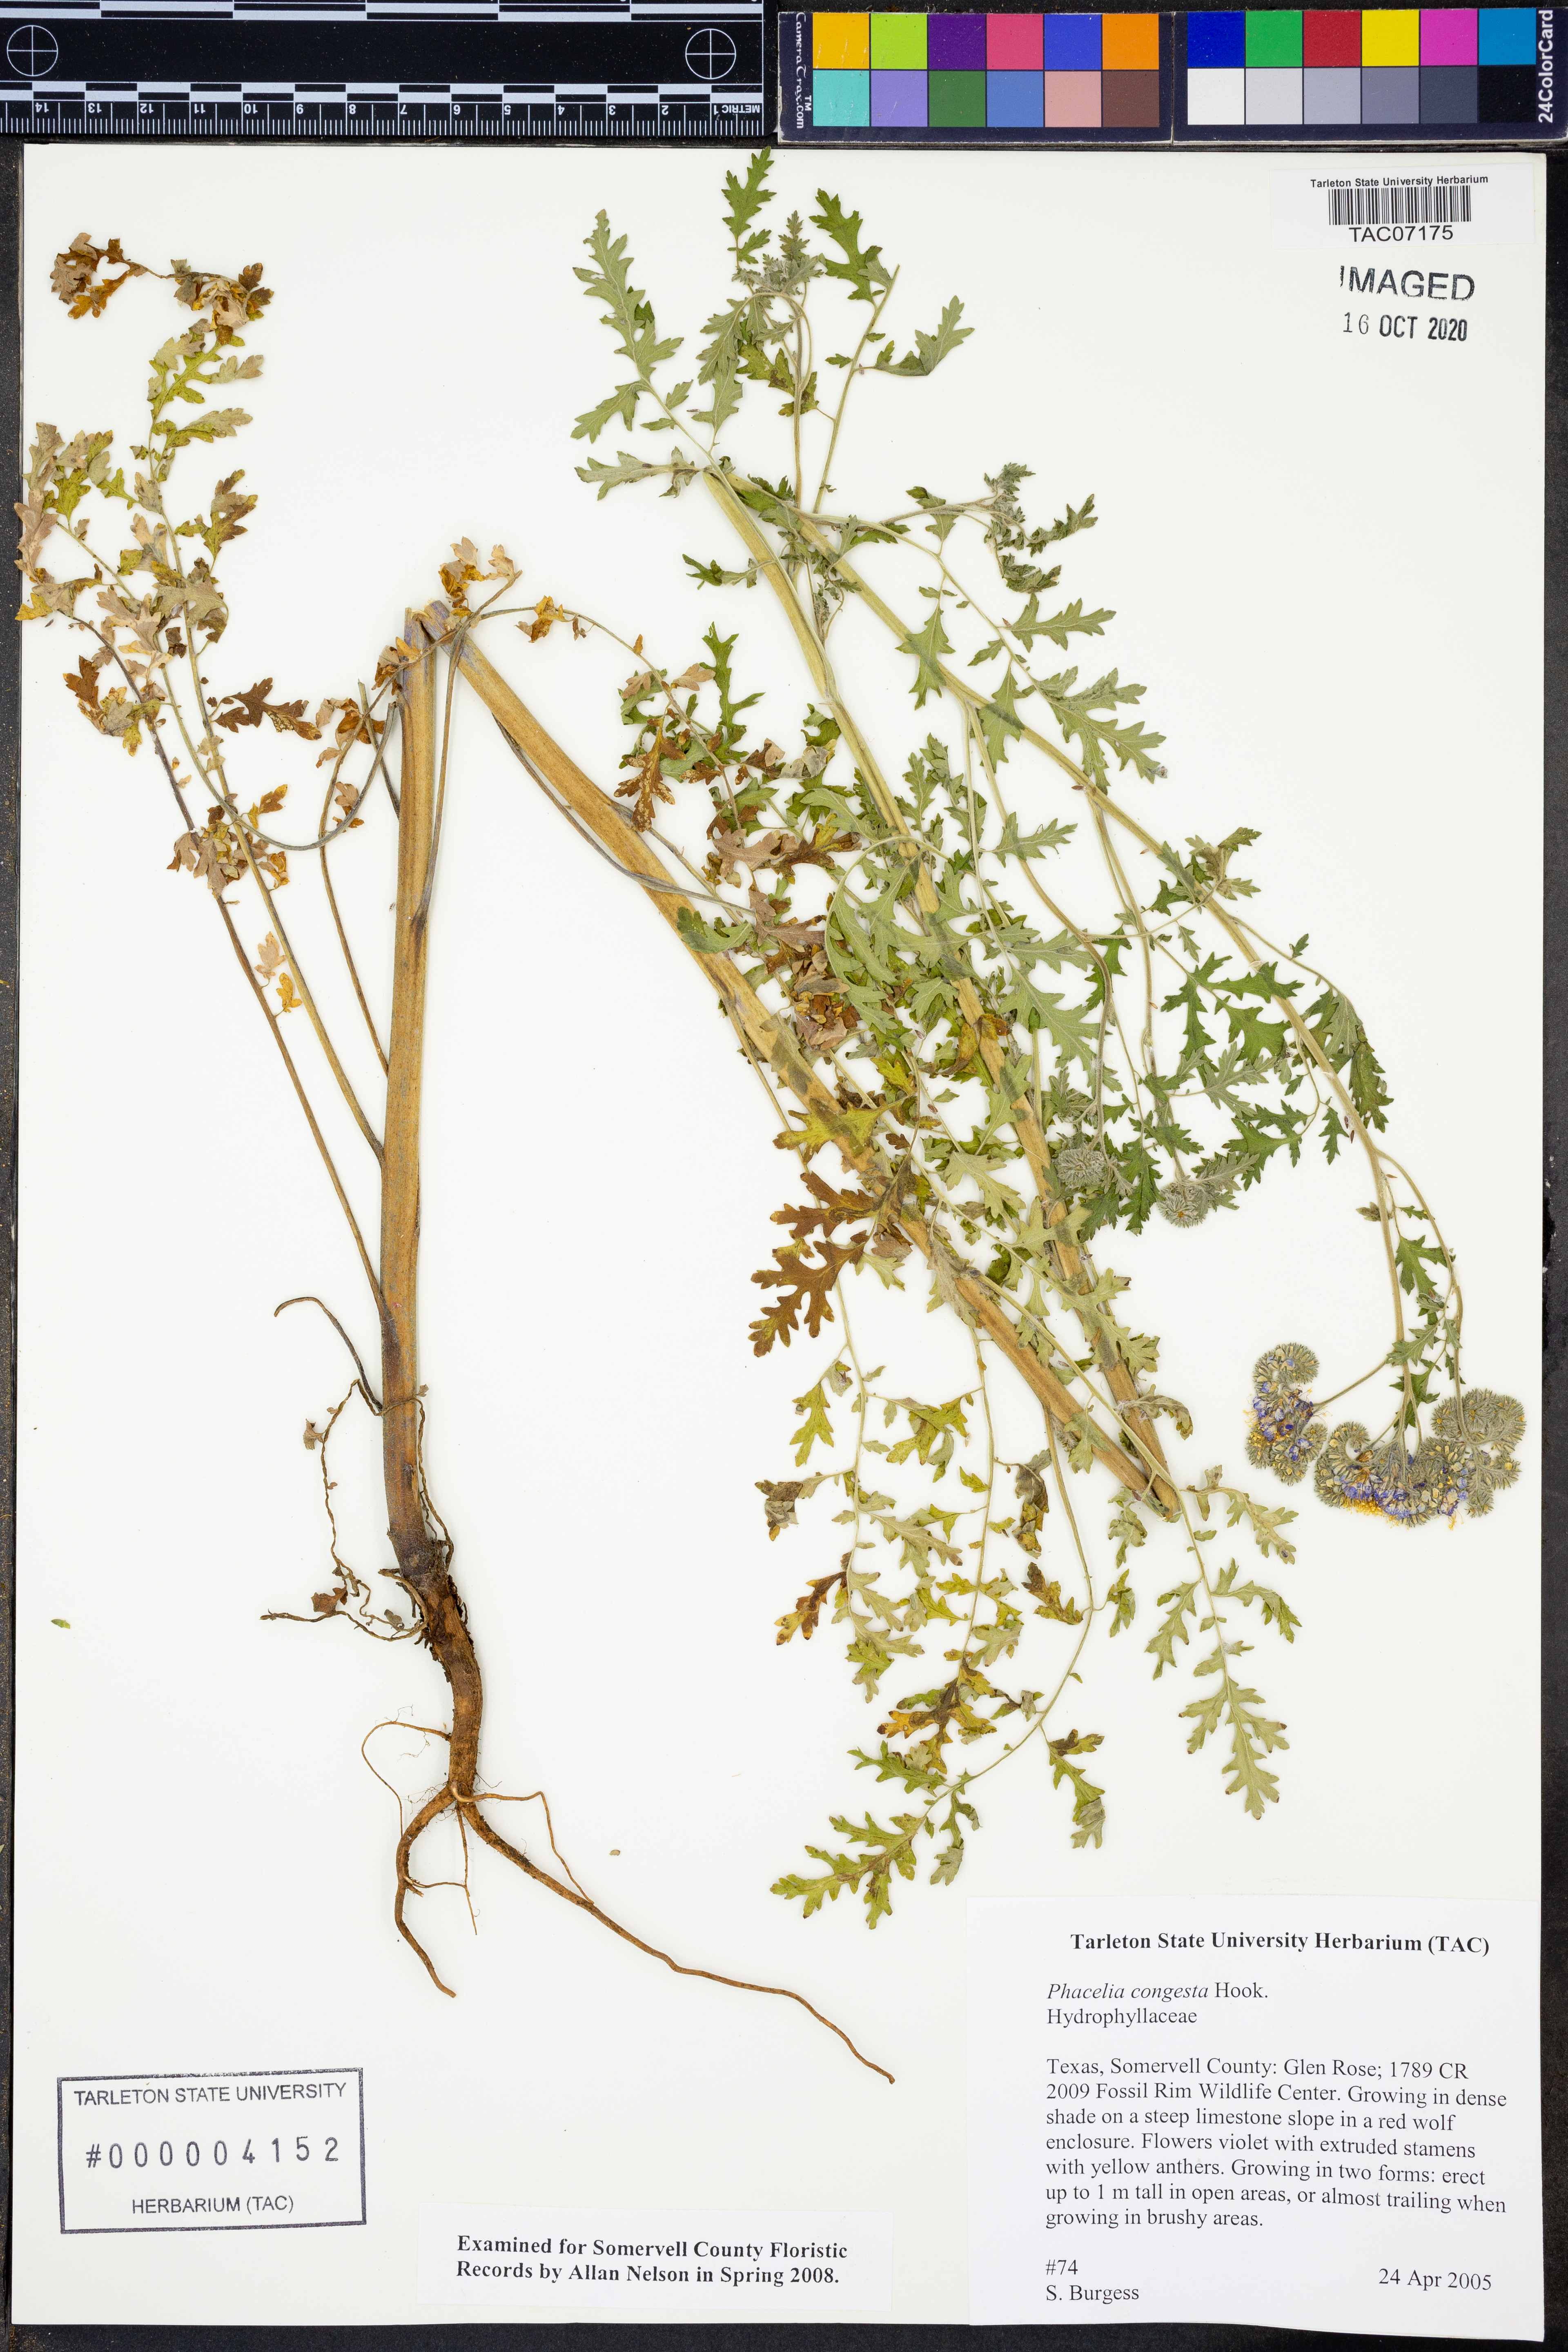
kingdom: Plantae
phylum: Tracheophyta
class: Magnoliopsida
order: Boraginales
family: Hydrophyllaceae
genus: Phacelia
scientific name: Phacelia congesta
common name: Blue curls
